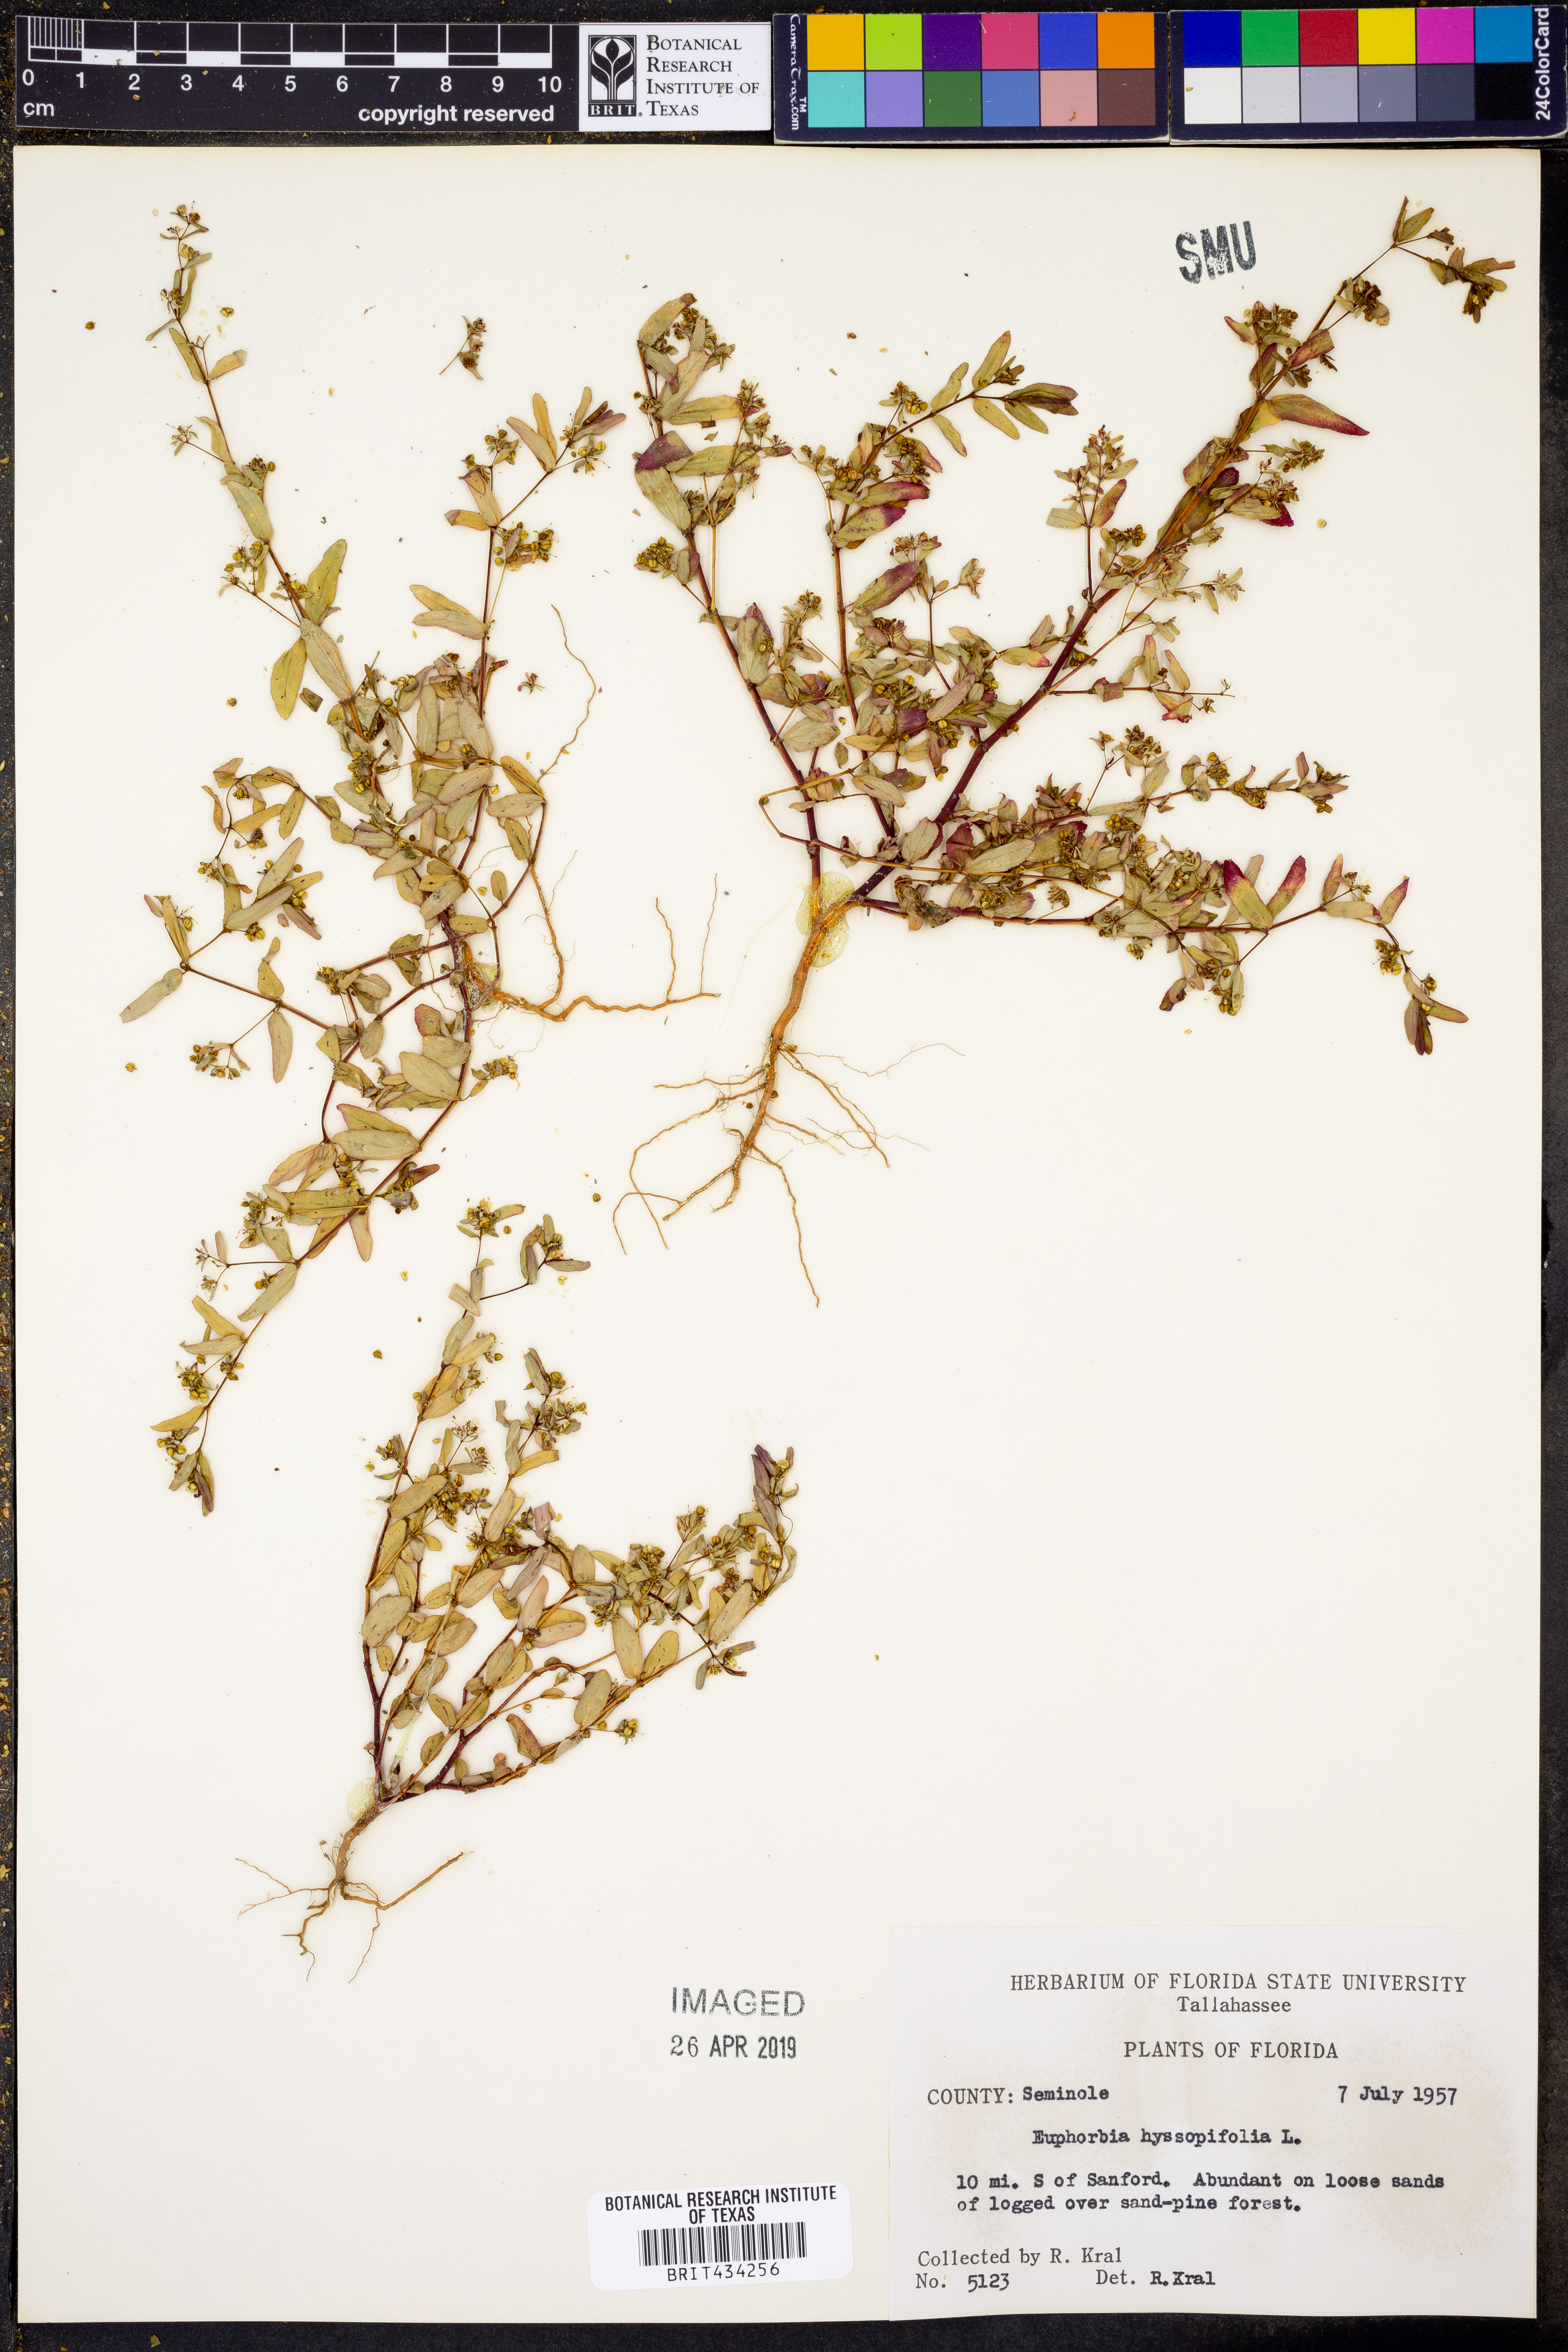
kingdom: Plantae
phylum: Tracheophyta
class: Magnoliopsida
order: Malpighiales
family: Euphorbiaceae
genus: Euphorbia
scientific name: Euphorbia hyssopifolia
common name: Hyssopleaf sandmat
